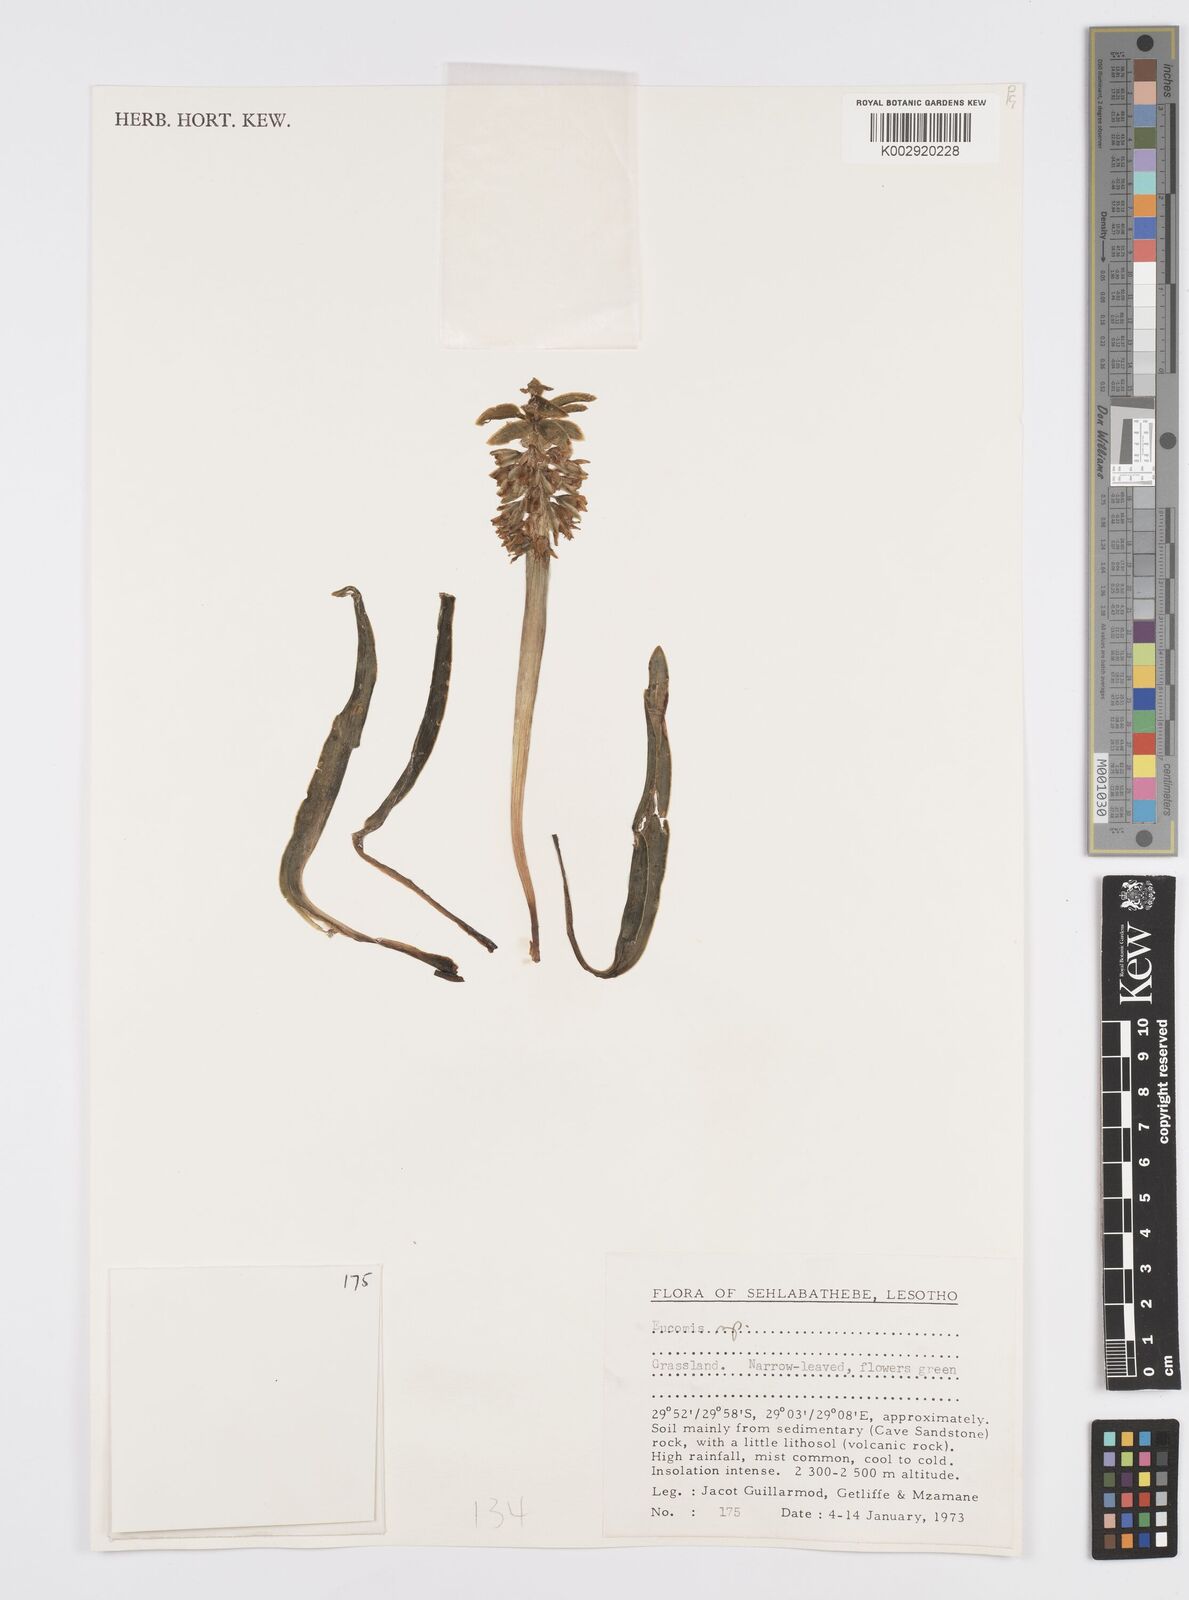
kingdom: Plantae
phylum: Tracheophyta
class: Liliopsida
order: Asparagales
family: Asparagaceae
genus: Eucomis
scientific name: Eucomis
